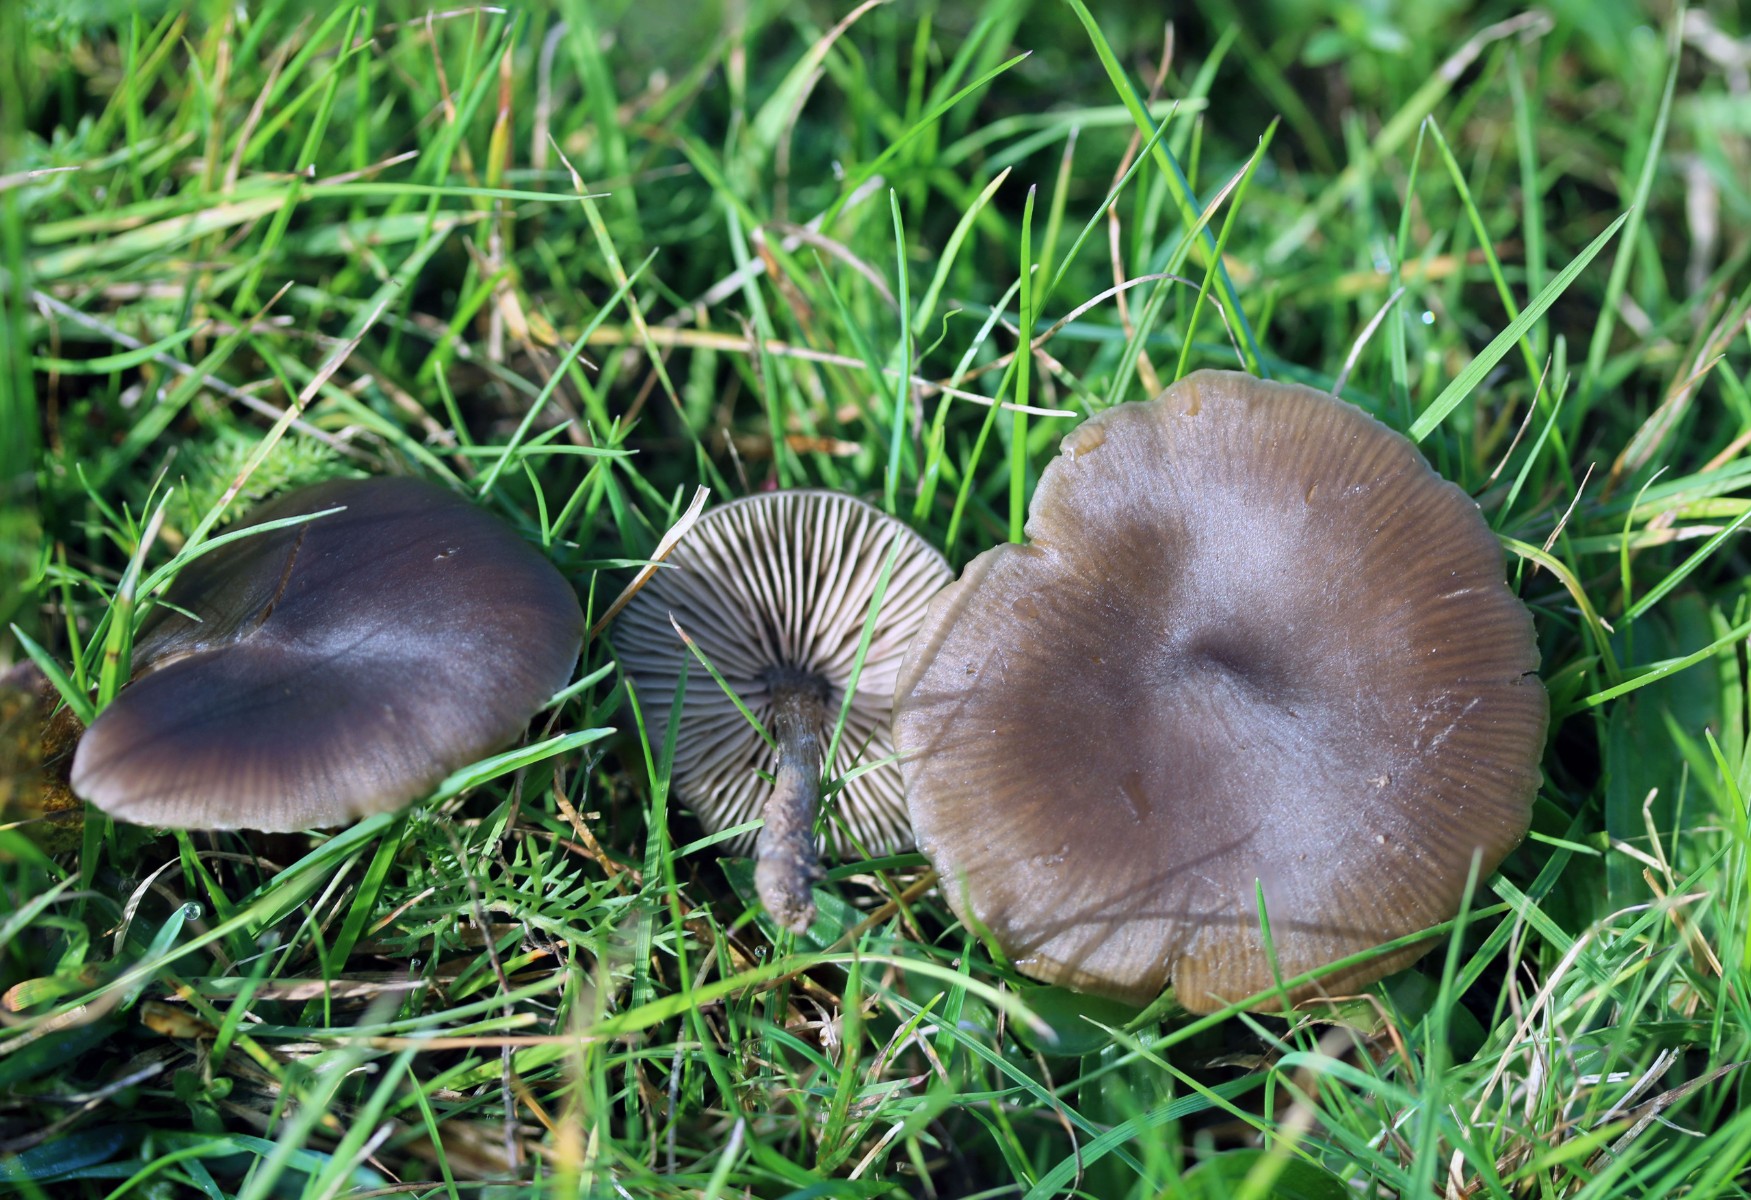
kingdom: Fungi
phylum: Basidiomycota
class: Agaricomycetes
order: Agaricales
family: Entolomataceae
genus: Entoloma
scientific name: Entoloma sericeum
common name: silkeglinsende rødblad
